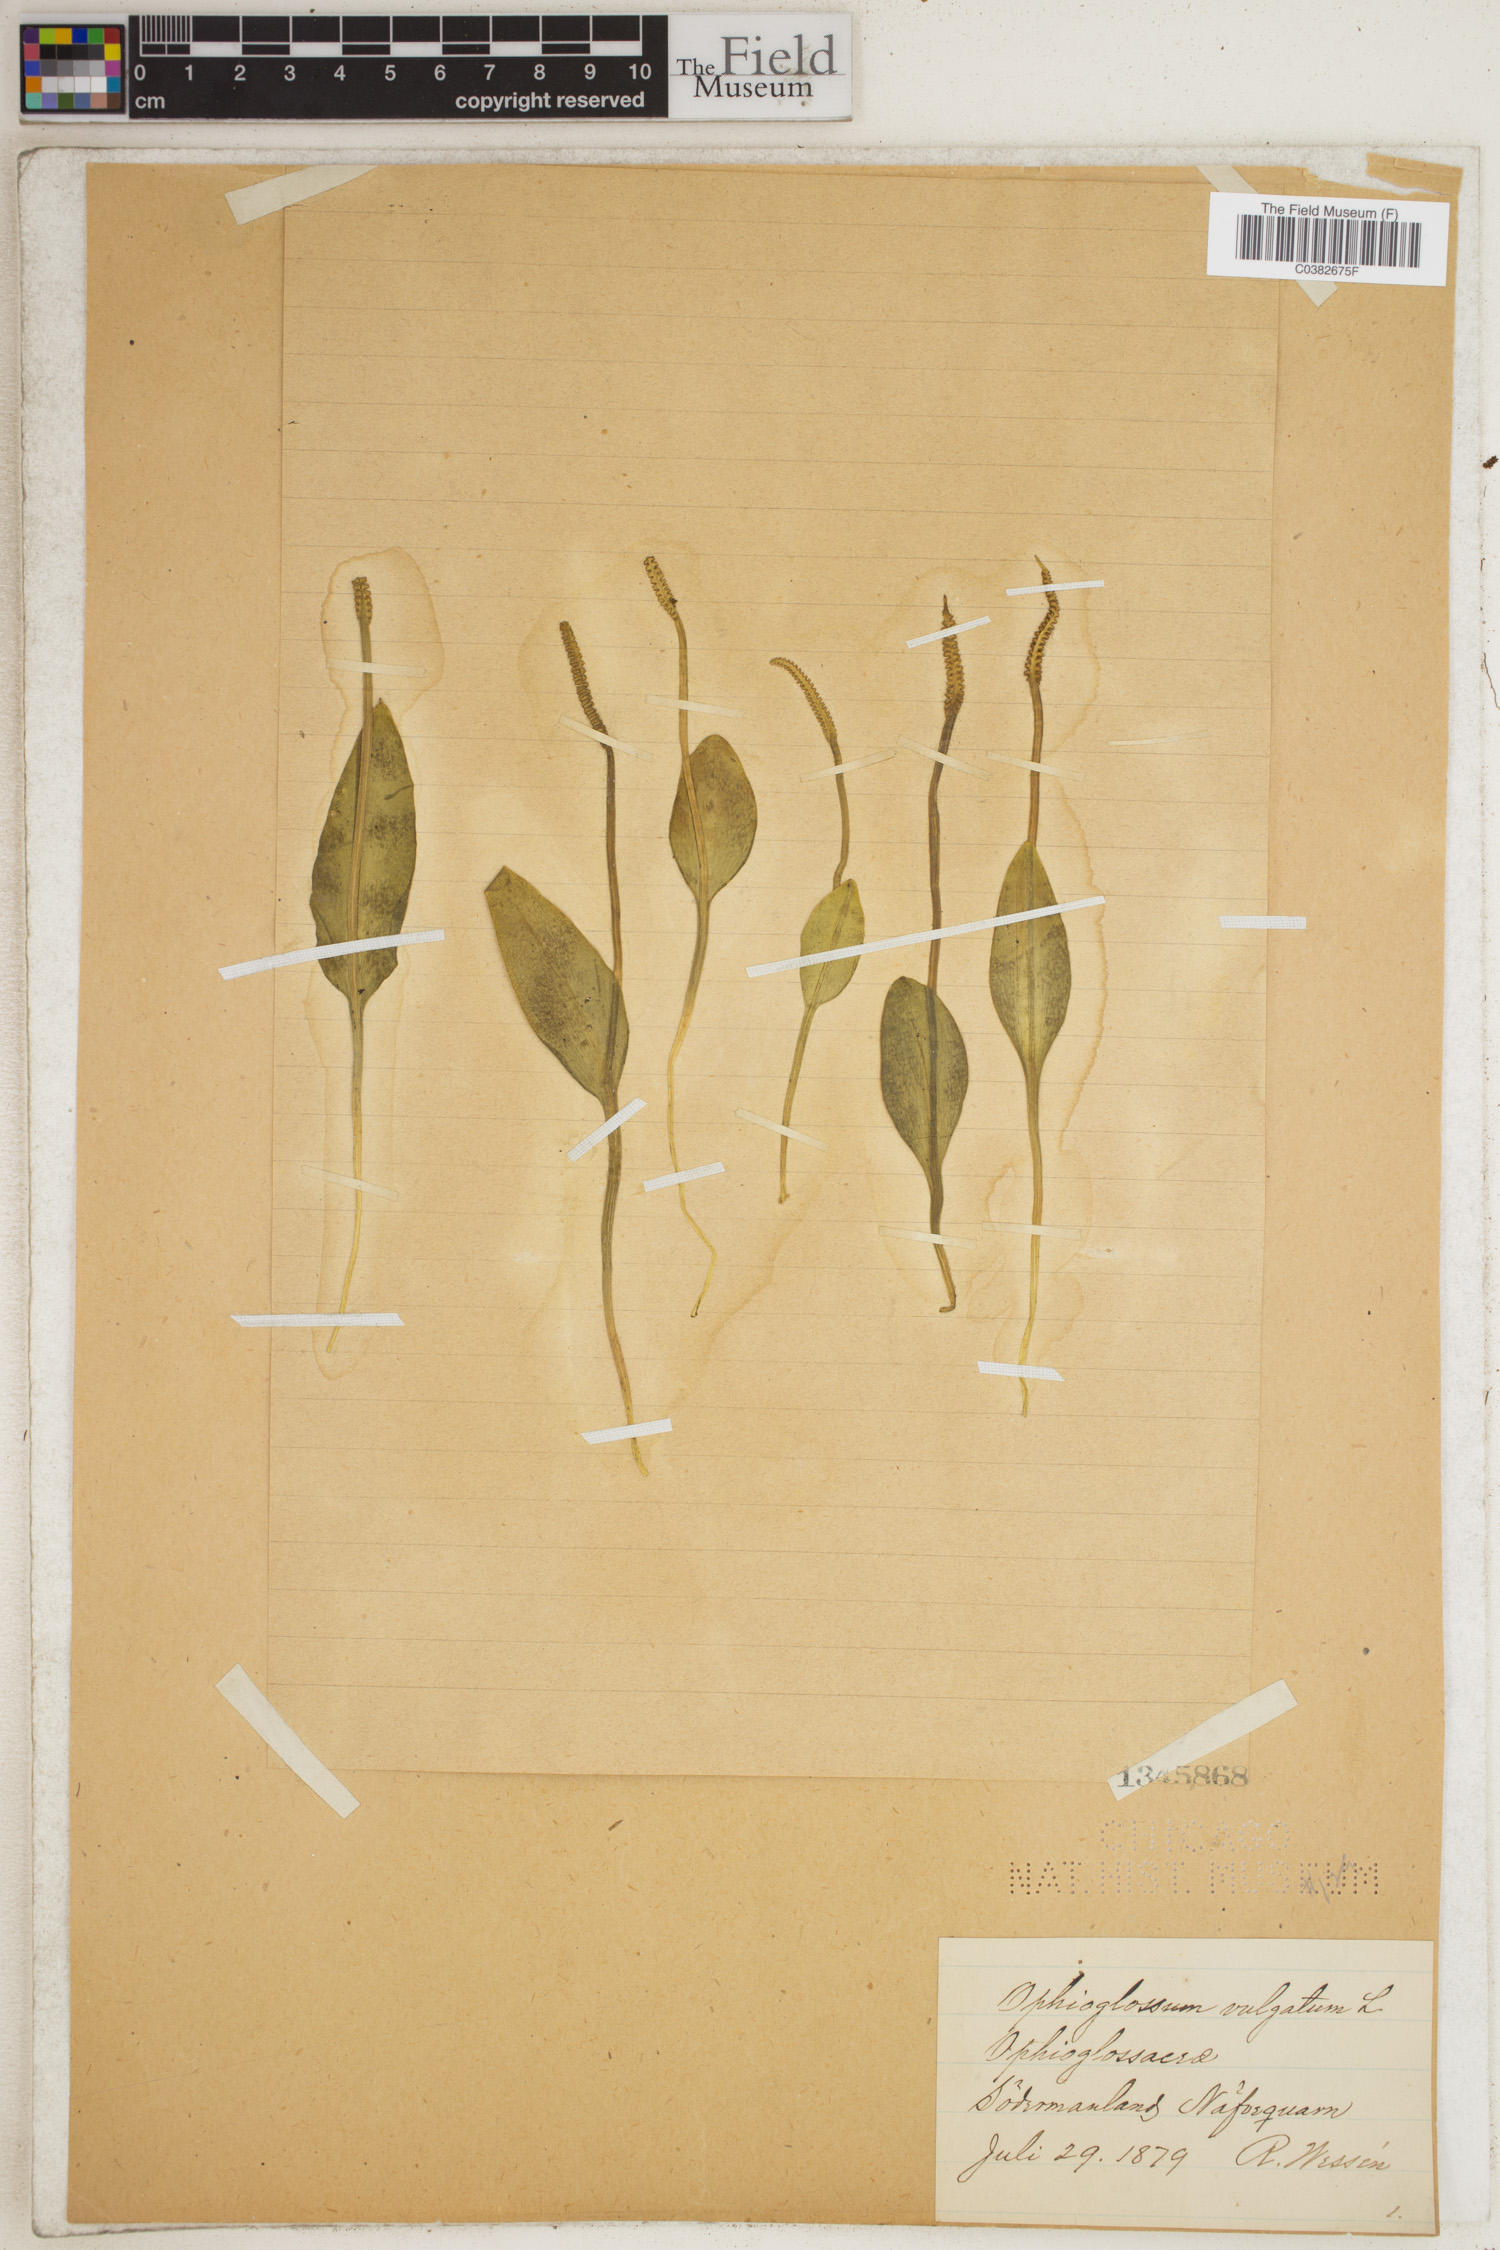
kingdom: Plantae
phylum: Tracheophyta
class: Polypodiopsida
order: Ophioglossales
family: Ophioglossaceae
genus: Ophioglossum
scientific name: Ophioglossum vulgatum
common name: Adder's-tongue
